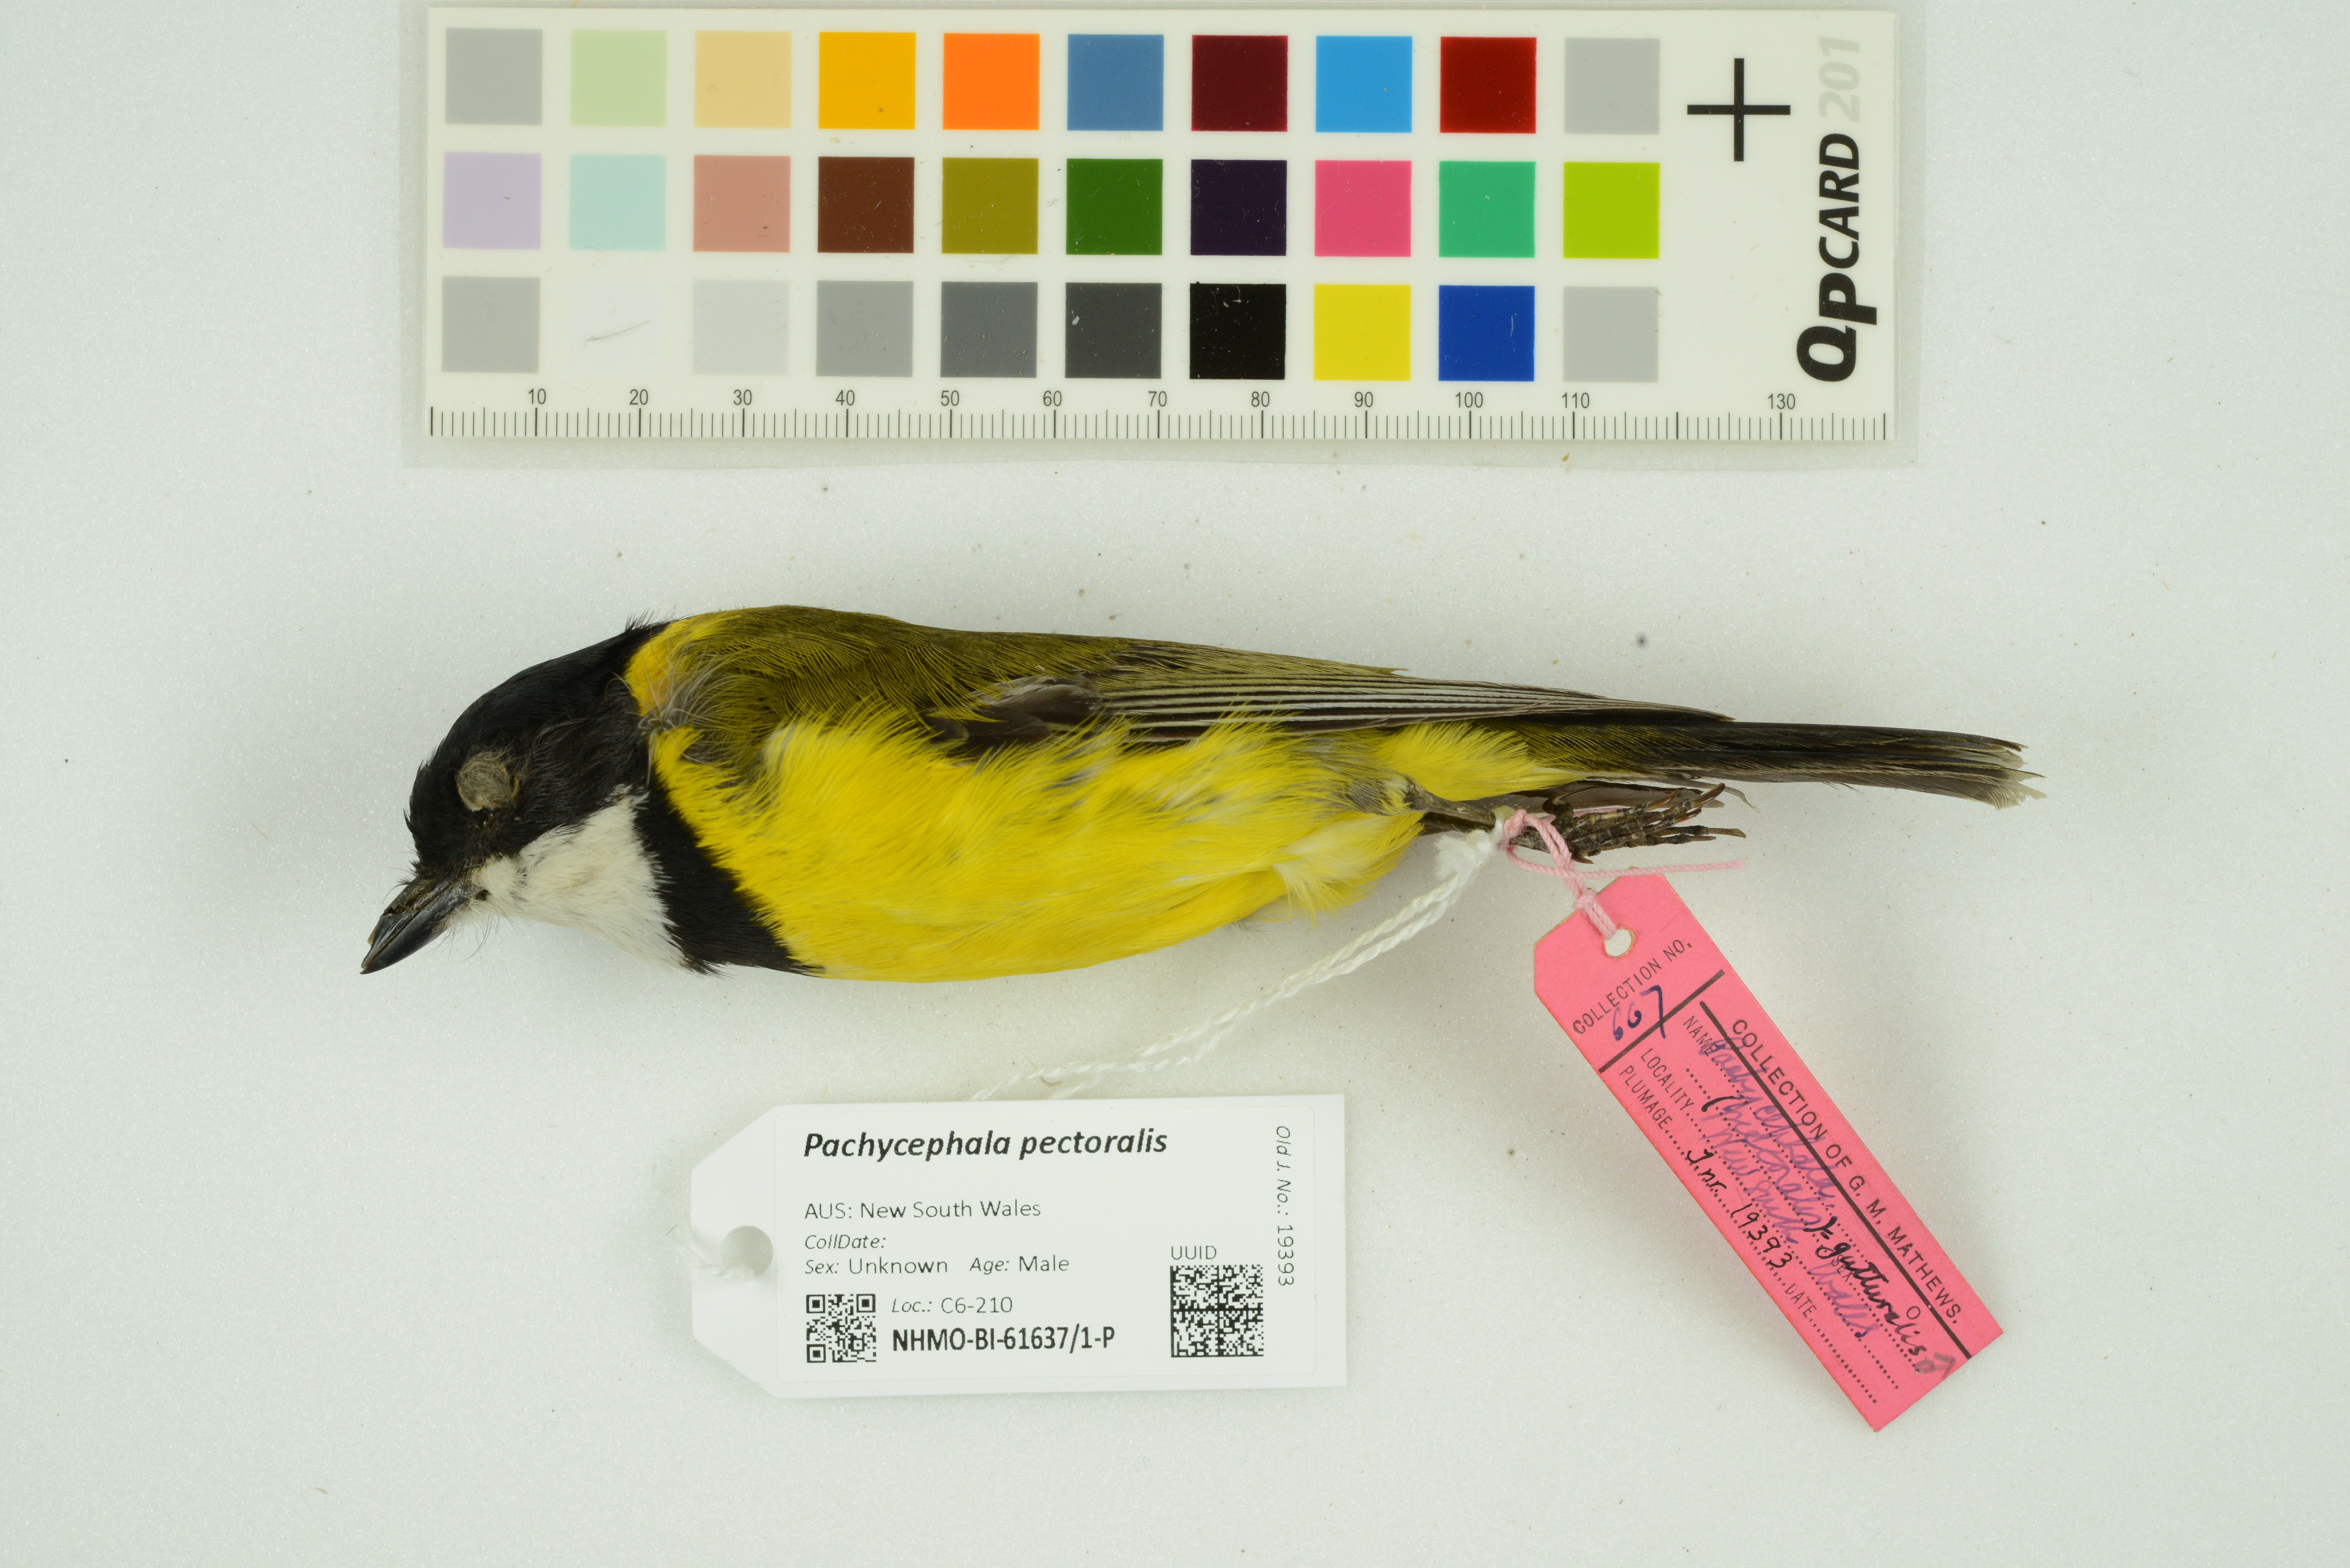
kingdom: Animalia
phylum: Chordata
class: Aves
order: Passeriformes
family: Pachycephalidae
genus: Pachycephala
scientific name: Pachycephala pectoralis
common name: Australian golden whistler
